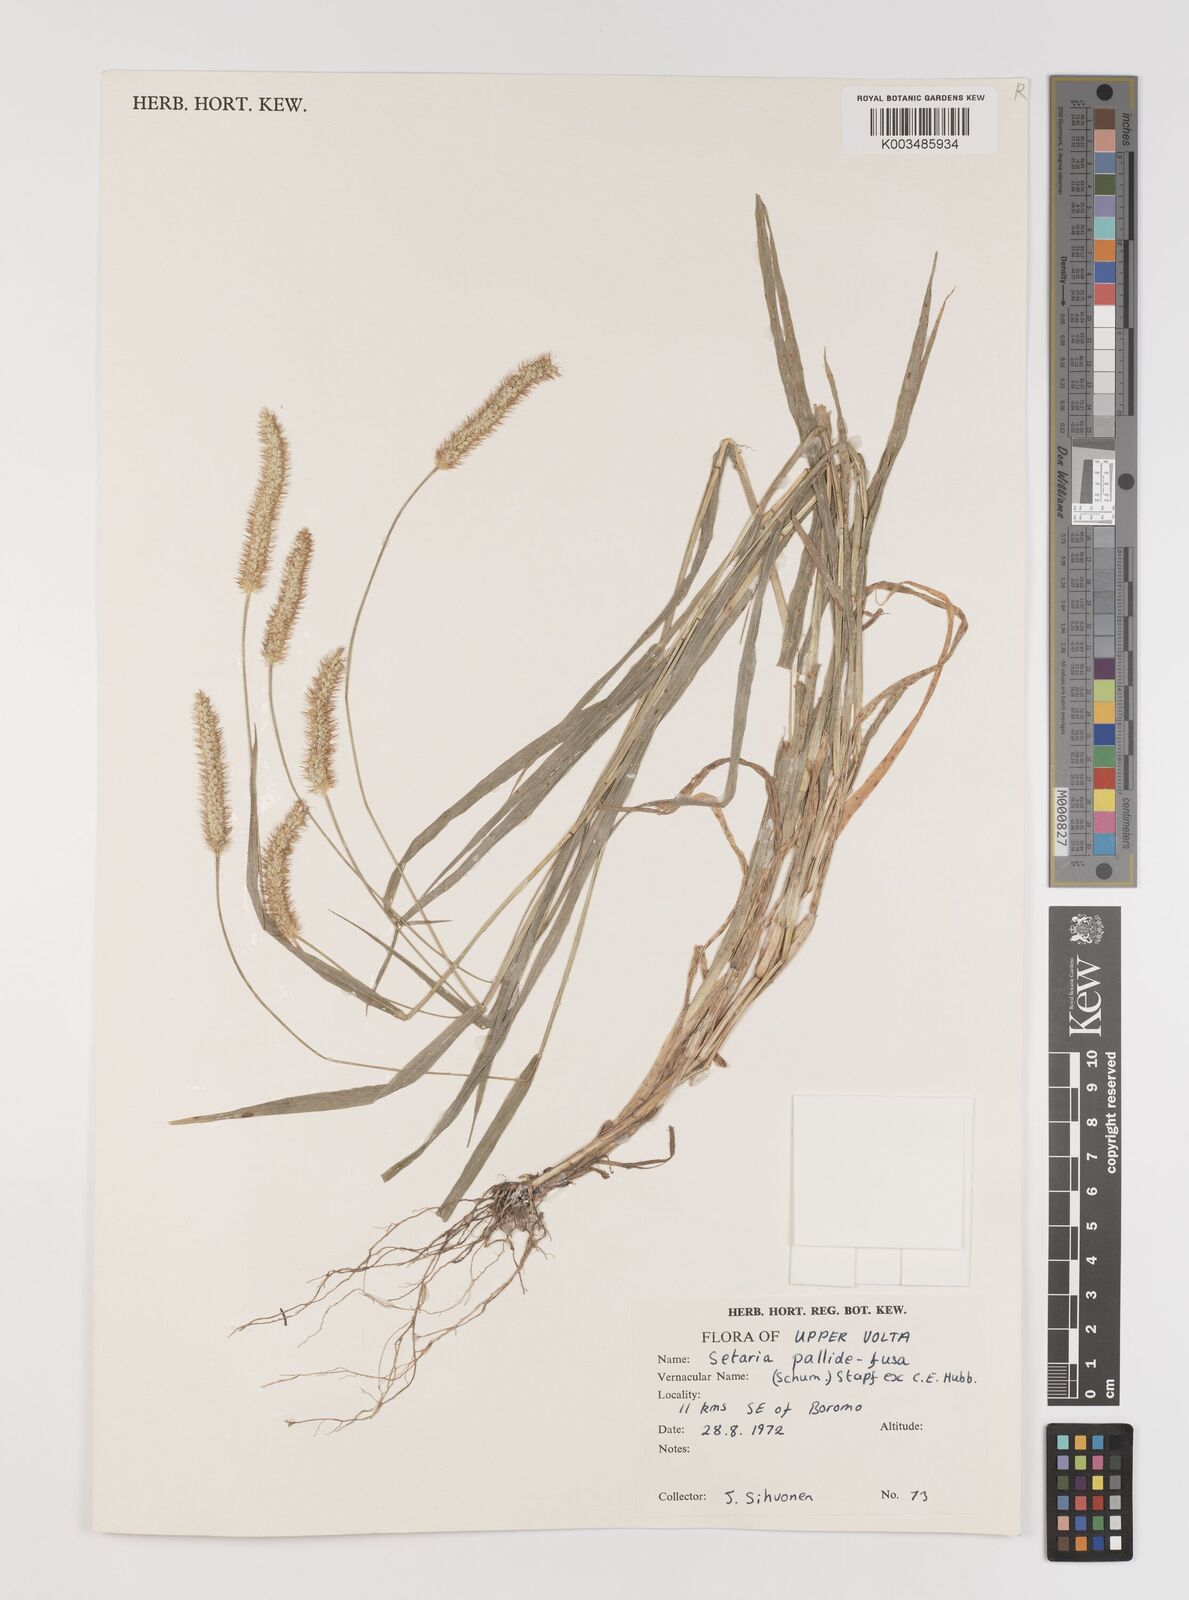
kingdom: Plantae
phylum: Tracheophyta
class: Liliopsida
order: Poales
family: Poaceae
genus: Setaria
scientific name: Setaria pumila
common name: Yellow bristle-grass
